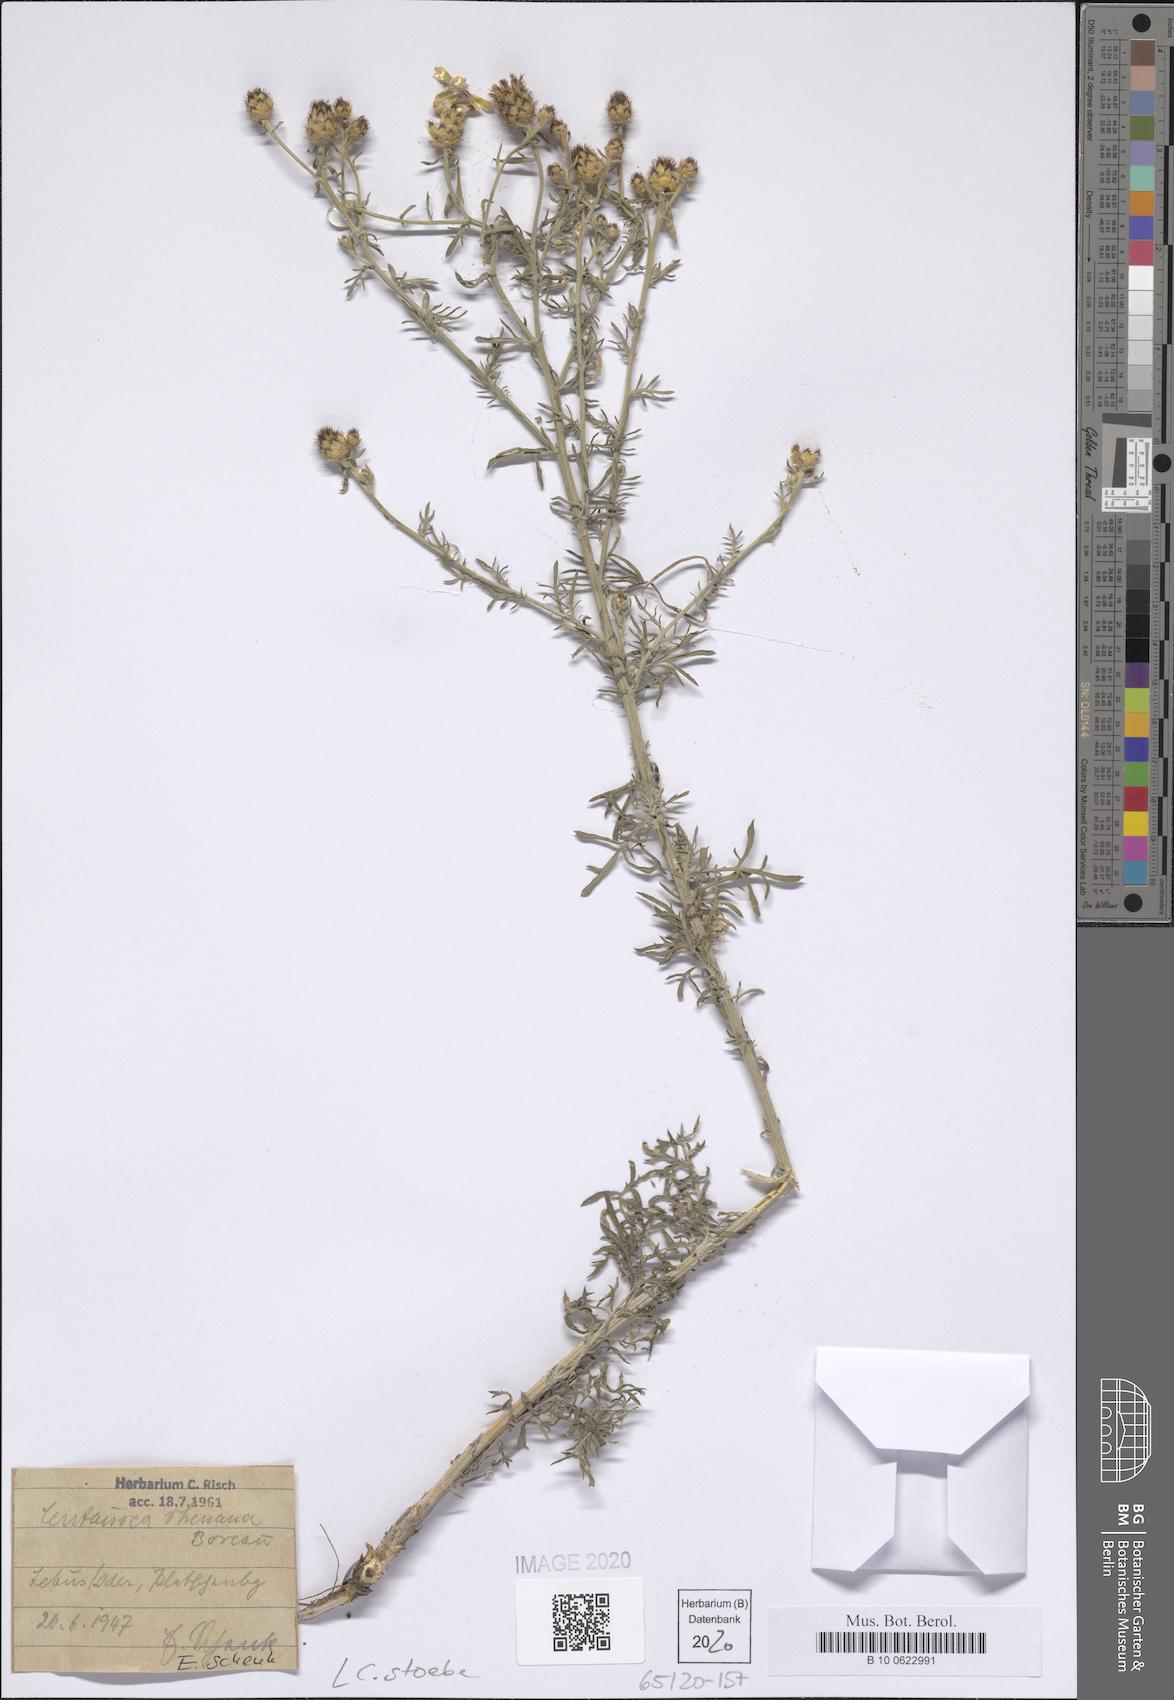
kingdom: Plantae
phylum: Tracheophyta
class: Magnoliopsida
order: Asterales
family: Asteraceae
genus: Centaurea
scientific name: Centaurea stoebe
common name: Spotted knapweed
